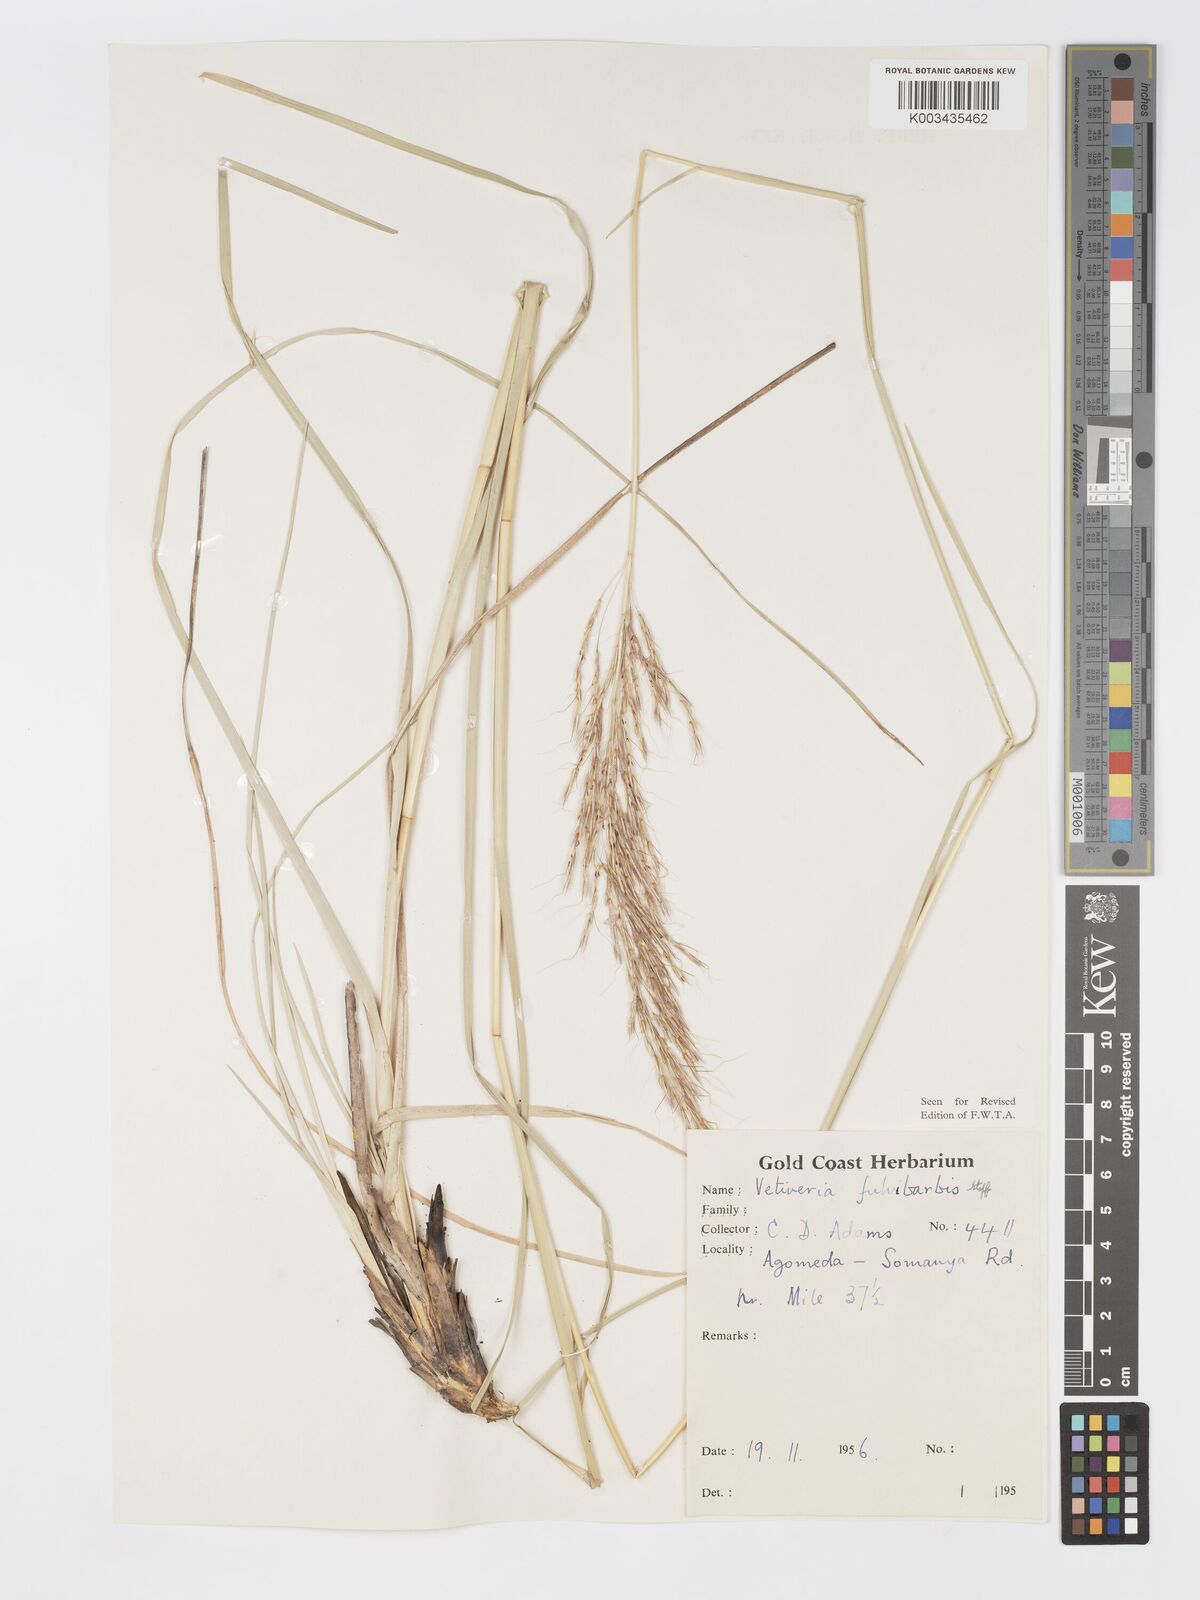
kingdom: Plantae
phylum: Tracheophyta
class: Liliopsida
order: Poales
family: Poaceae
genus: Chrysopogon
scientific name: Chrysopogon fulvibarbis
